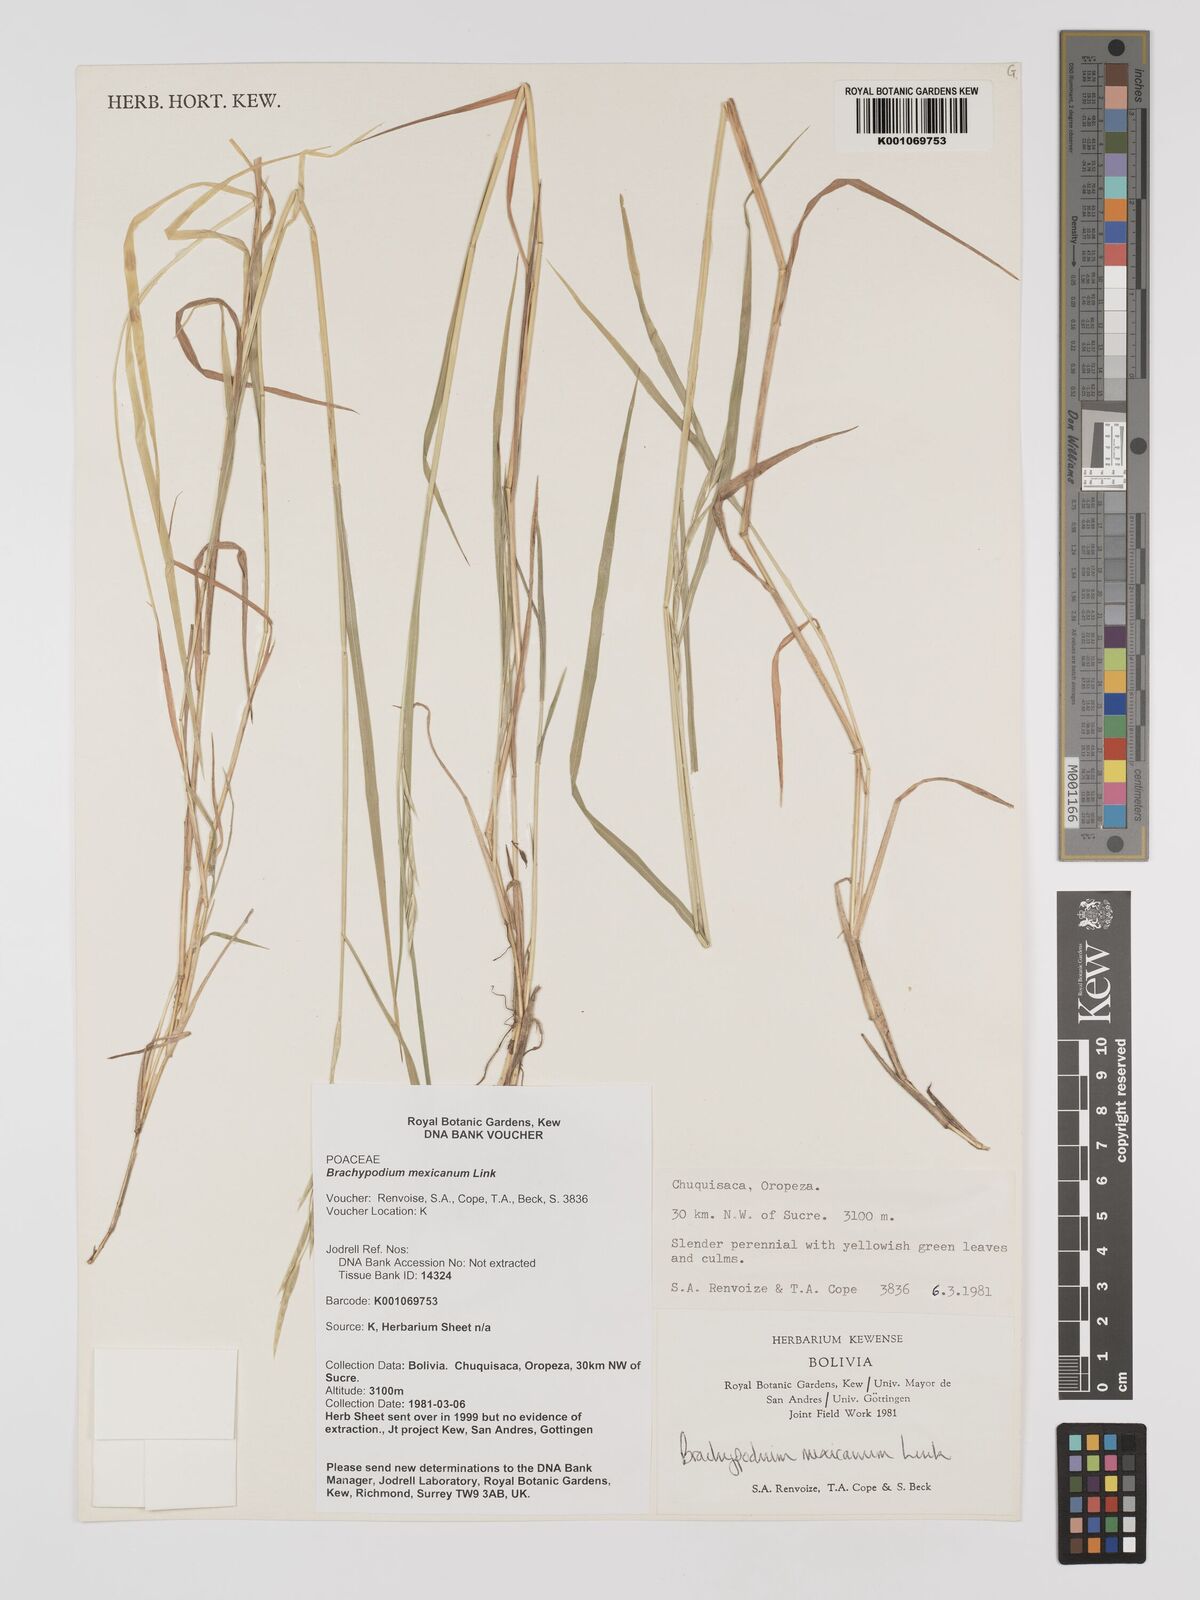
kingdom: Plantae
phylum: Tracheophyta
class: Liliopsida
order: Poales
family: Poaceae
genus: Brachypodium
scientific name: Brachypodium mexicanum
